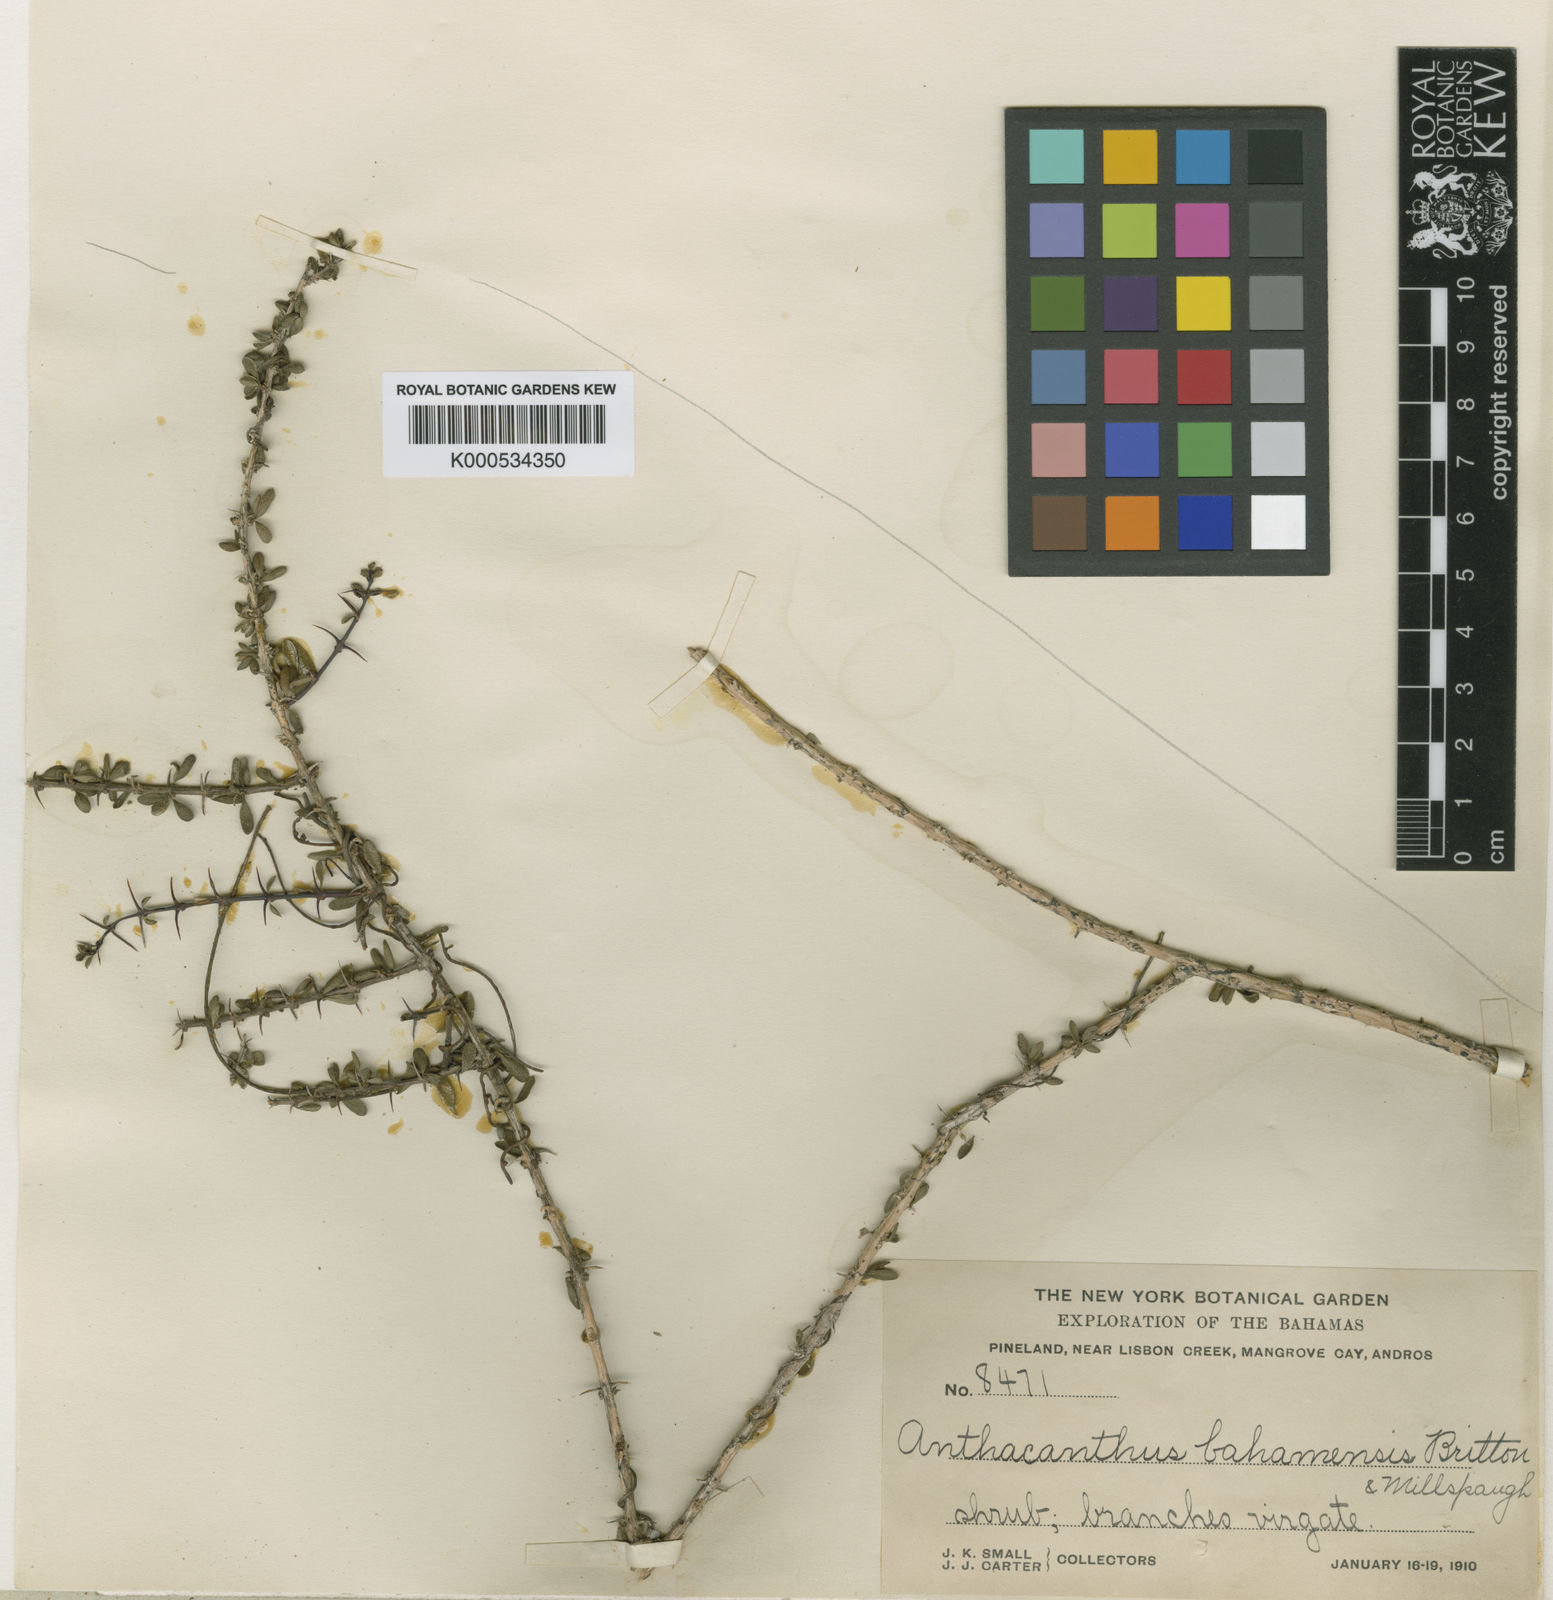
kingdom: Plantae
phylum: Tracheophyta
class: Magnoliopsida
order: Lamiales
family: Acanthaceae
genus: Oplonia
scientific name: Oplonia
